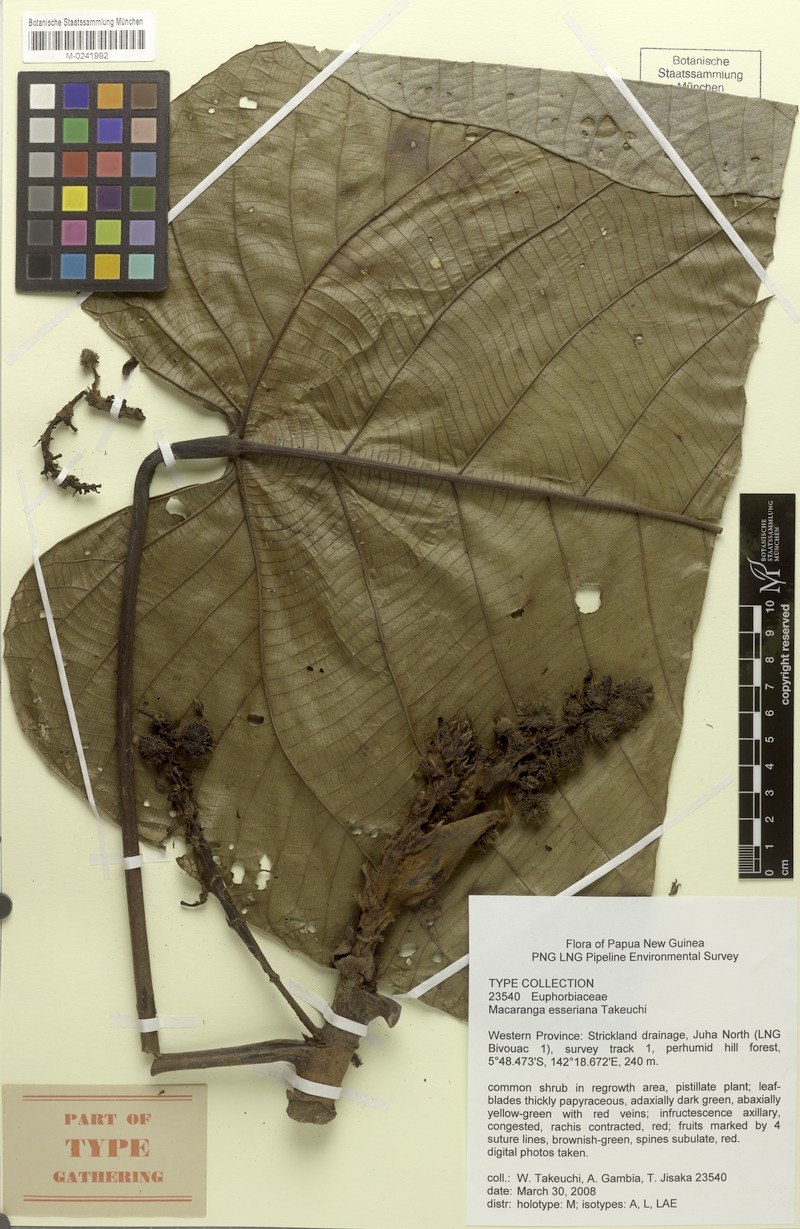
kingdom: Plantae
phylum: Tracheophyta
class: Magnoliopsida
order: Malpighiales
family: Euphorbiaceae
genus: Macaranga
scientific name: Macaranga esseriana
